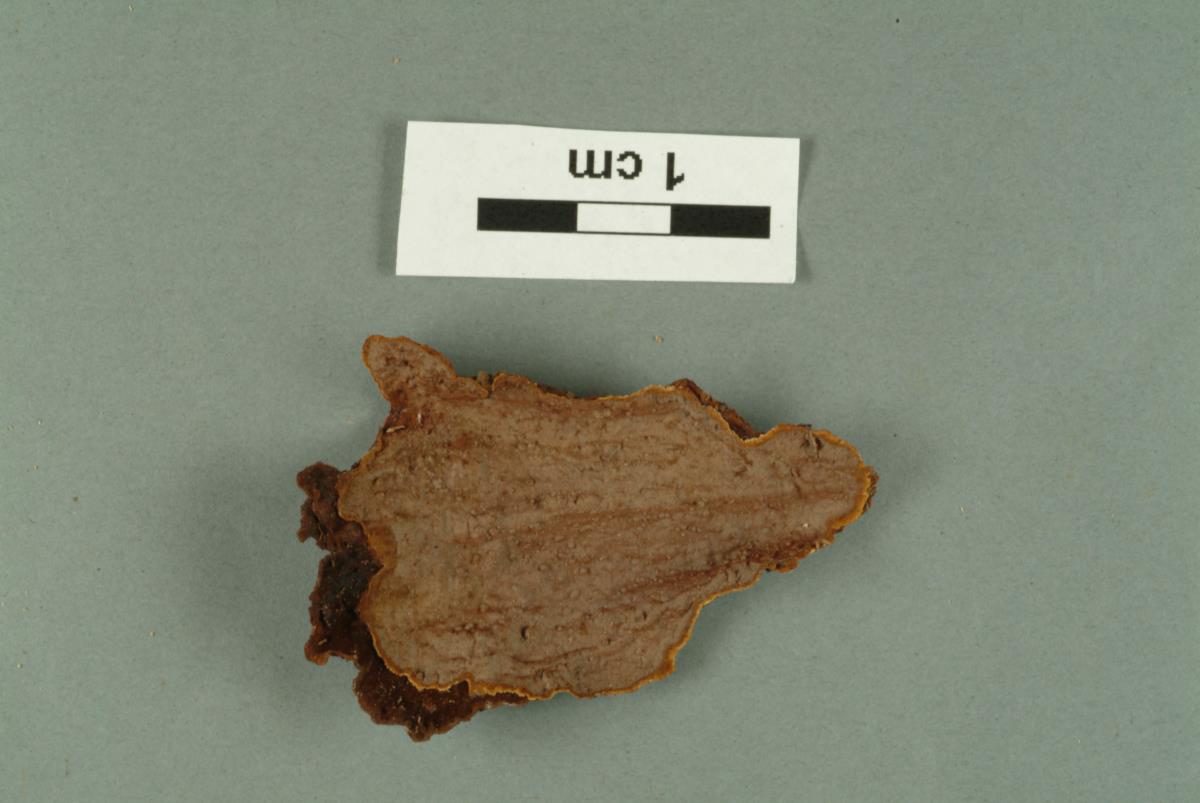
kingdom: Fungi
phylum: Basidiomycota
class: Agaricomycetes
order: Agaricales
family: Omphalotaceae
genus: Marasmiellus
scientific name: Marasmiellus
